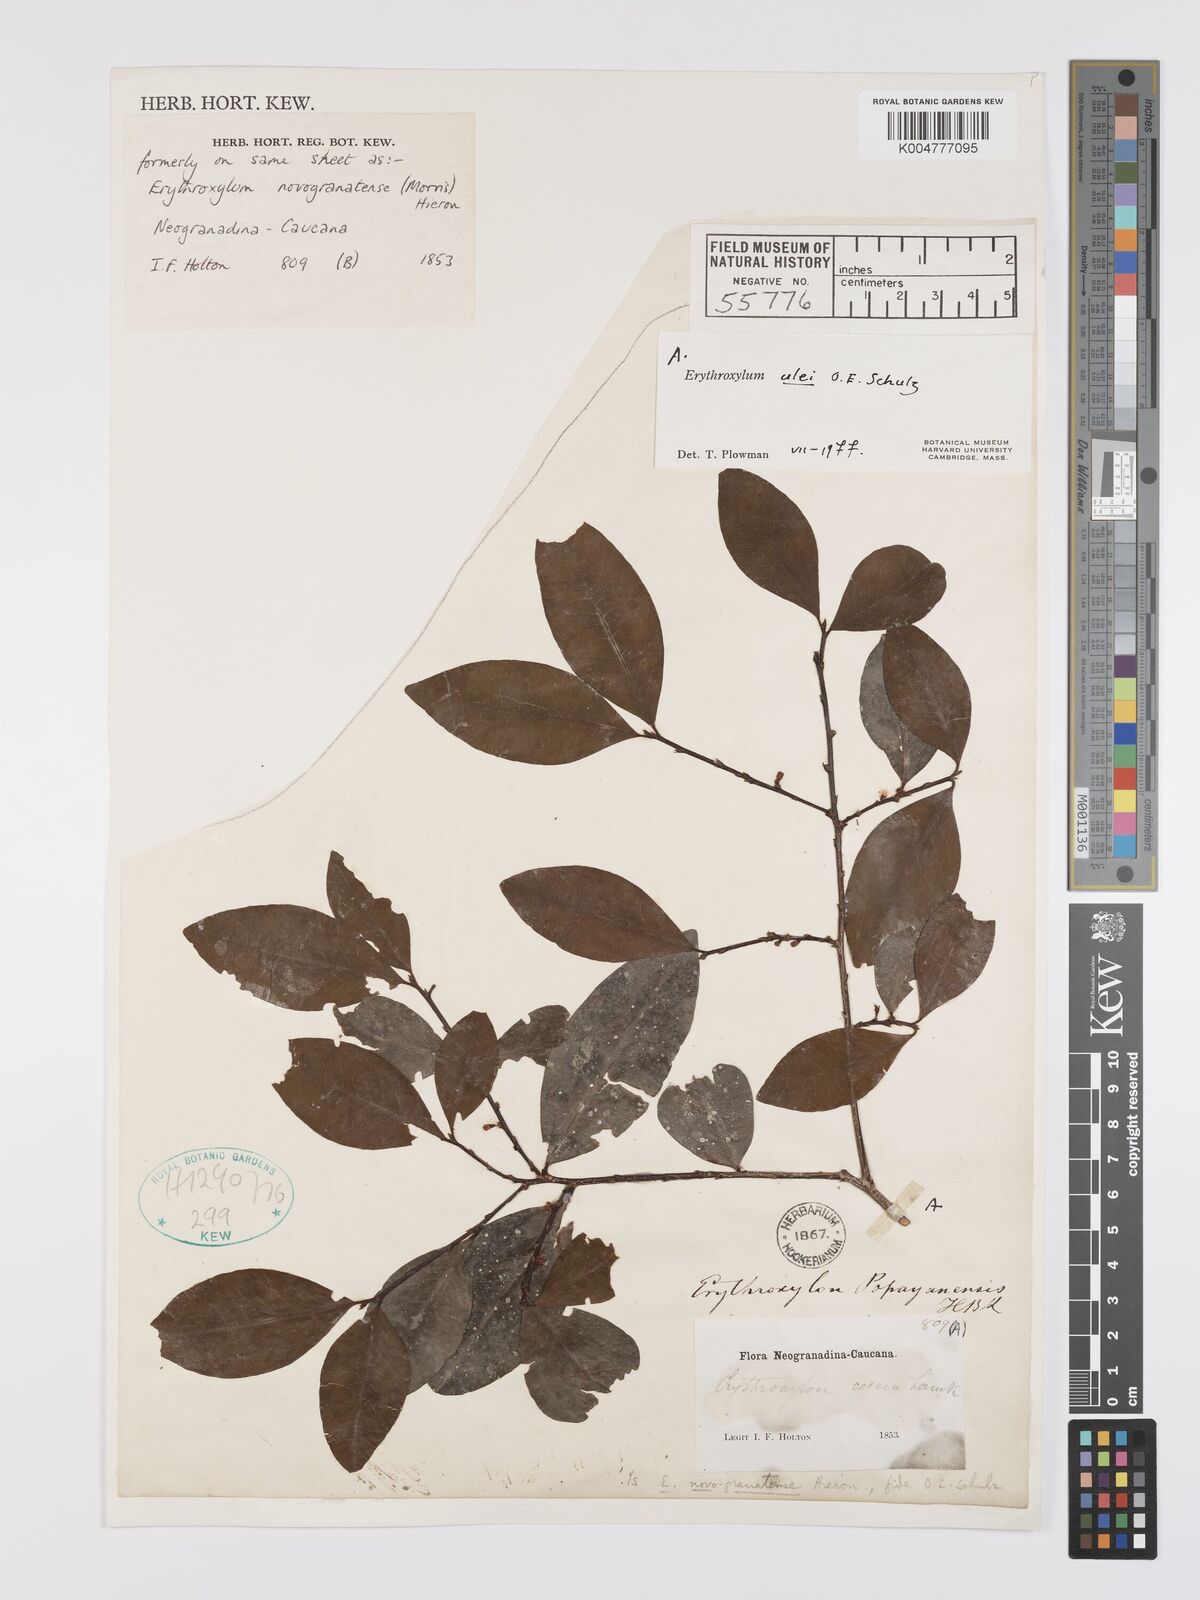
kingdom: Plantae
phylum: Tracheophyta
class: Magnoliopsida
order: Malpighiales
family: Erythroxylaceae
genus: Erythroxylum
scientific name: Erythroxylum ulei
